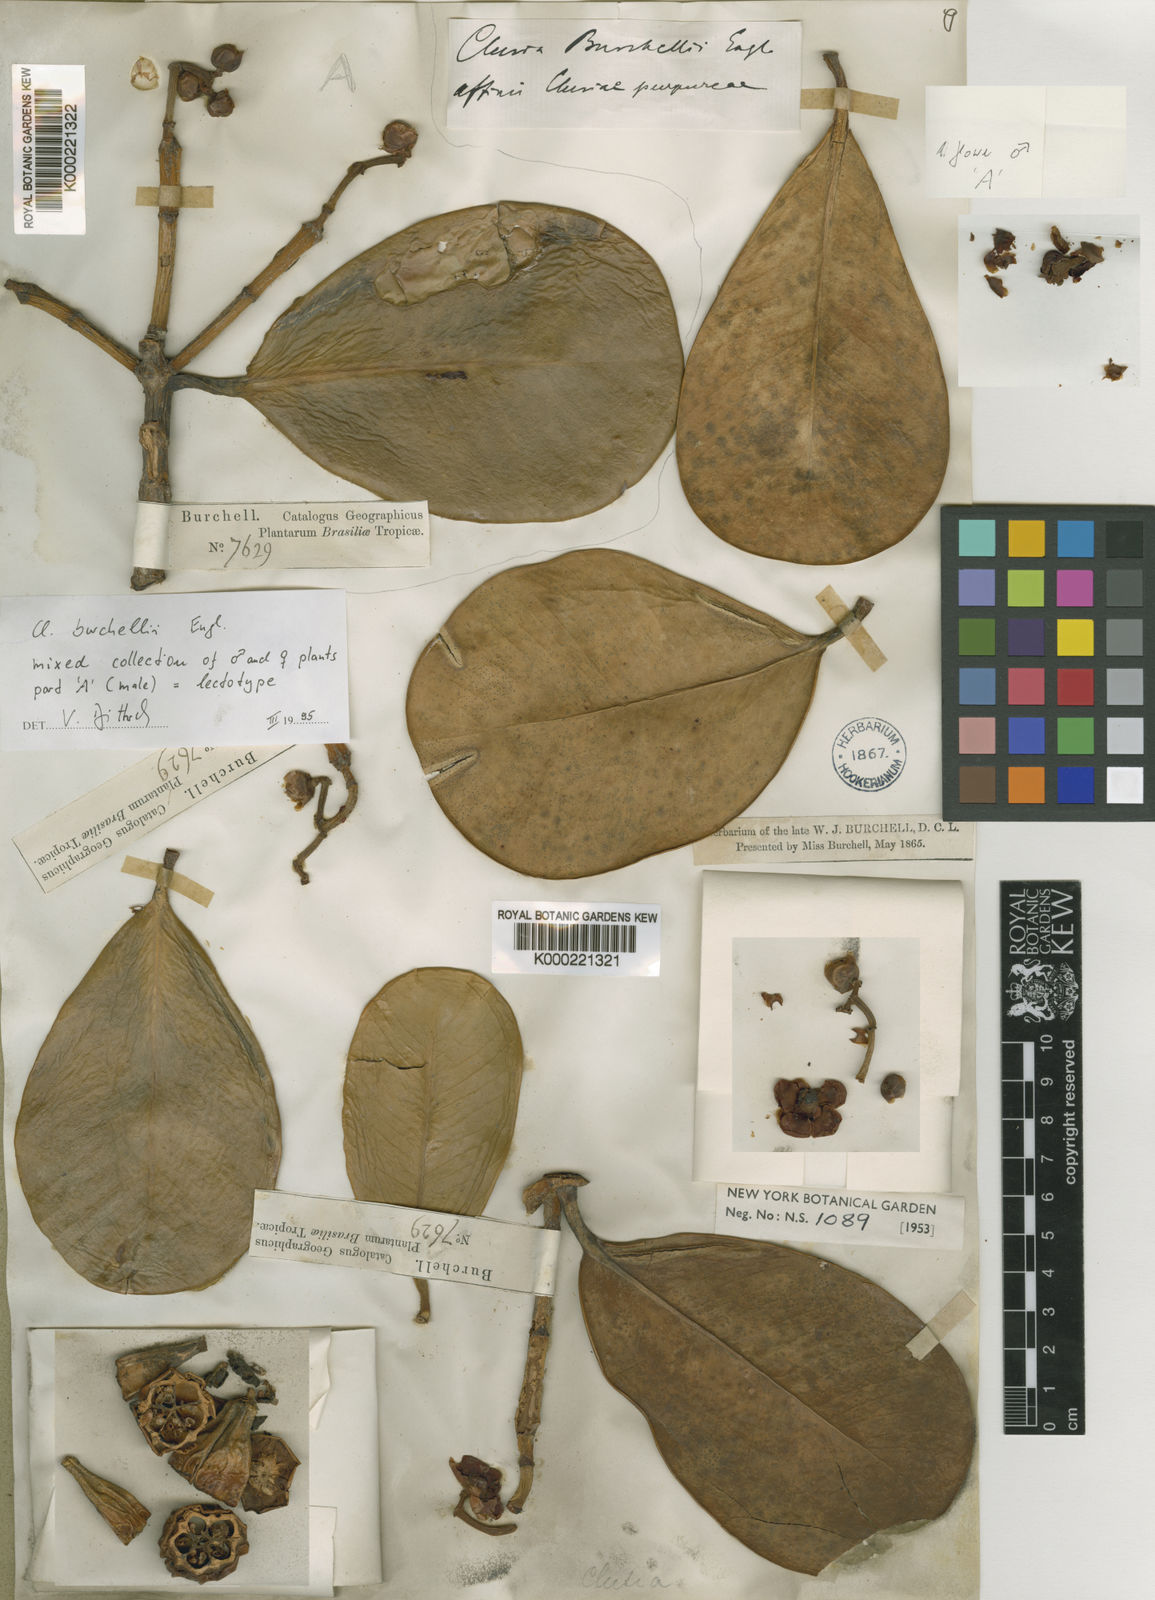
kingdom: Plantae
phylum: Tracheophyta
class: Magnoliopsida
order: Malpighiales
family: Calophyllaceae
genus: Kielmeyera
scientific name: Kielmeyera
